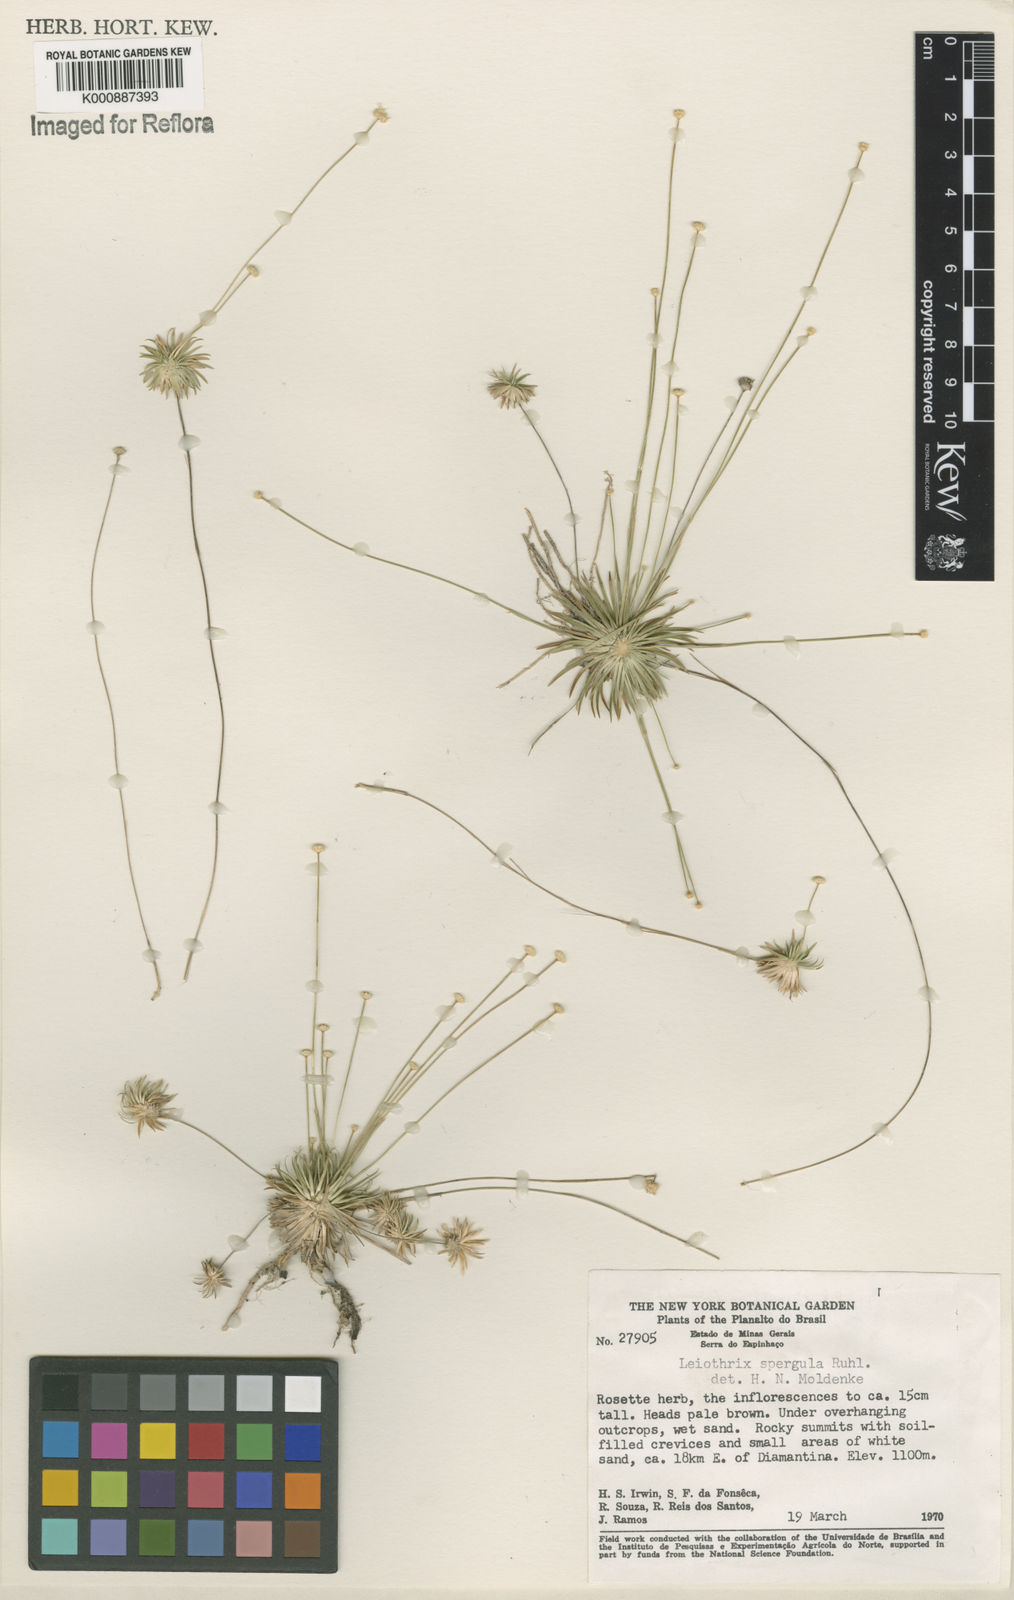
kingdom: Plantae
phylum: Tracheophyta
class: Liliopsida
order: Poales
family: Eriocaulaceae
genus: Leiothrix
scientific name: Leiothrix spergula
